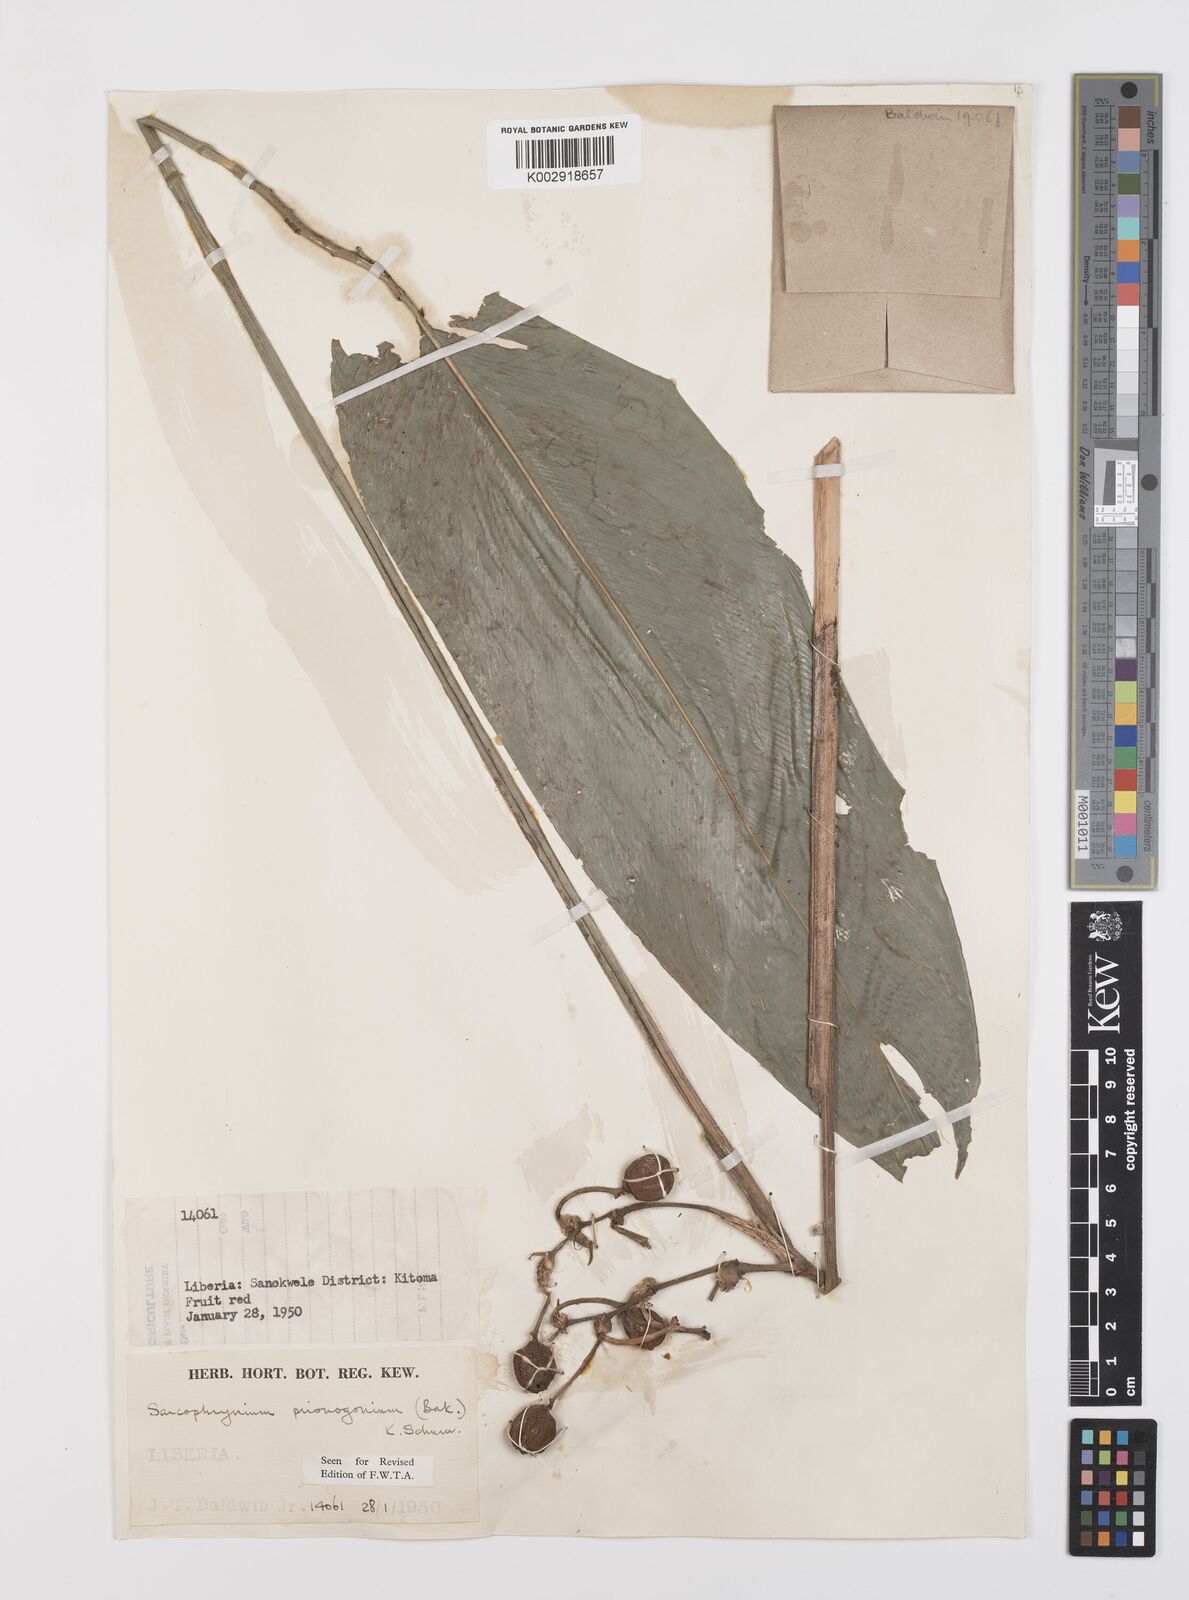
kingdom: Plantae
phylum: Tracheophyta
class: Liliopsida
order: Zingiberales
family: Marantaceae
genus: Sarcophrynium
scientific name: Sarcophrynium prionogonium
